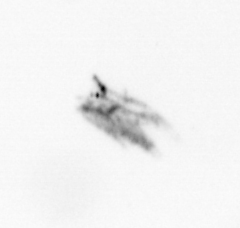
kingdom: Animalia
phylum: Arthropoda
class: Copepoda
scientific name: Copepoda
